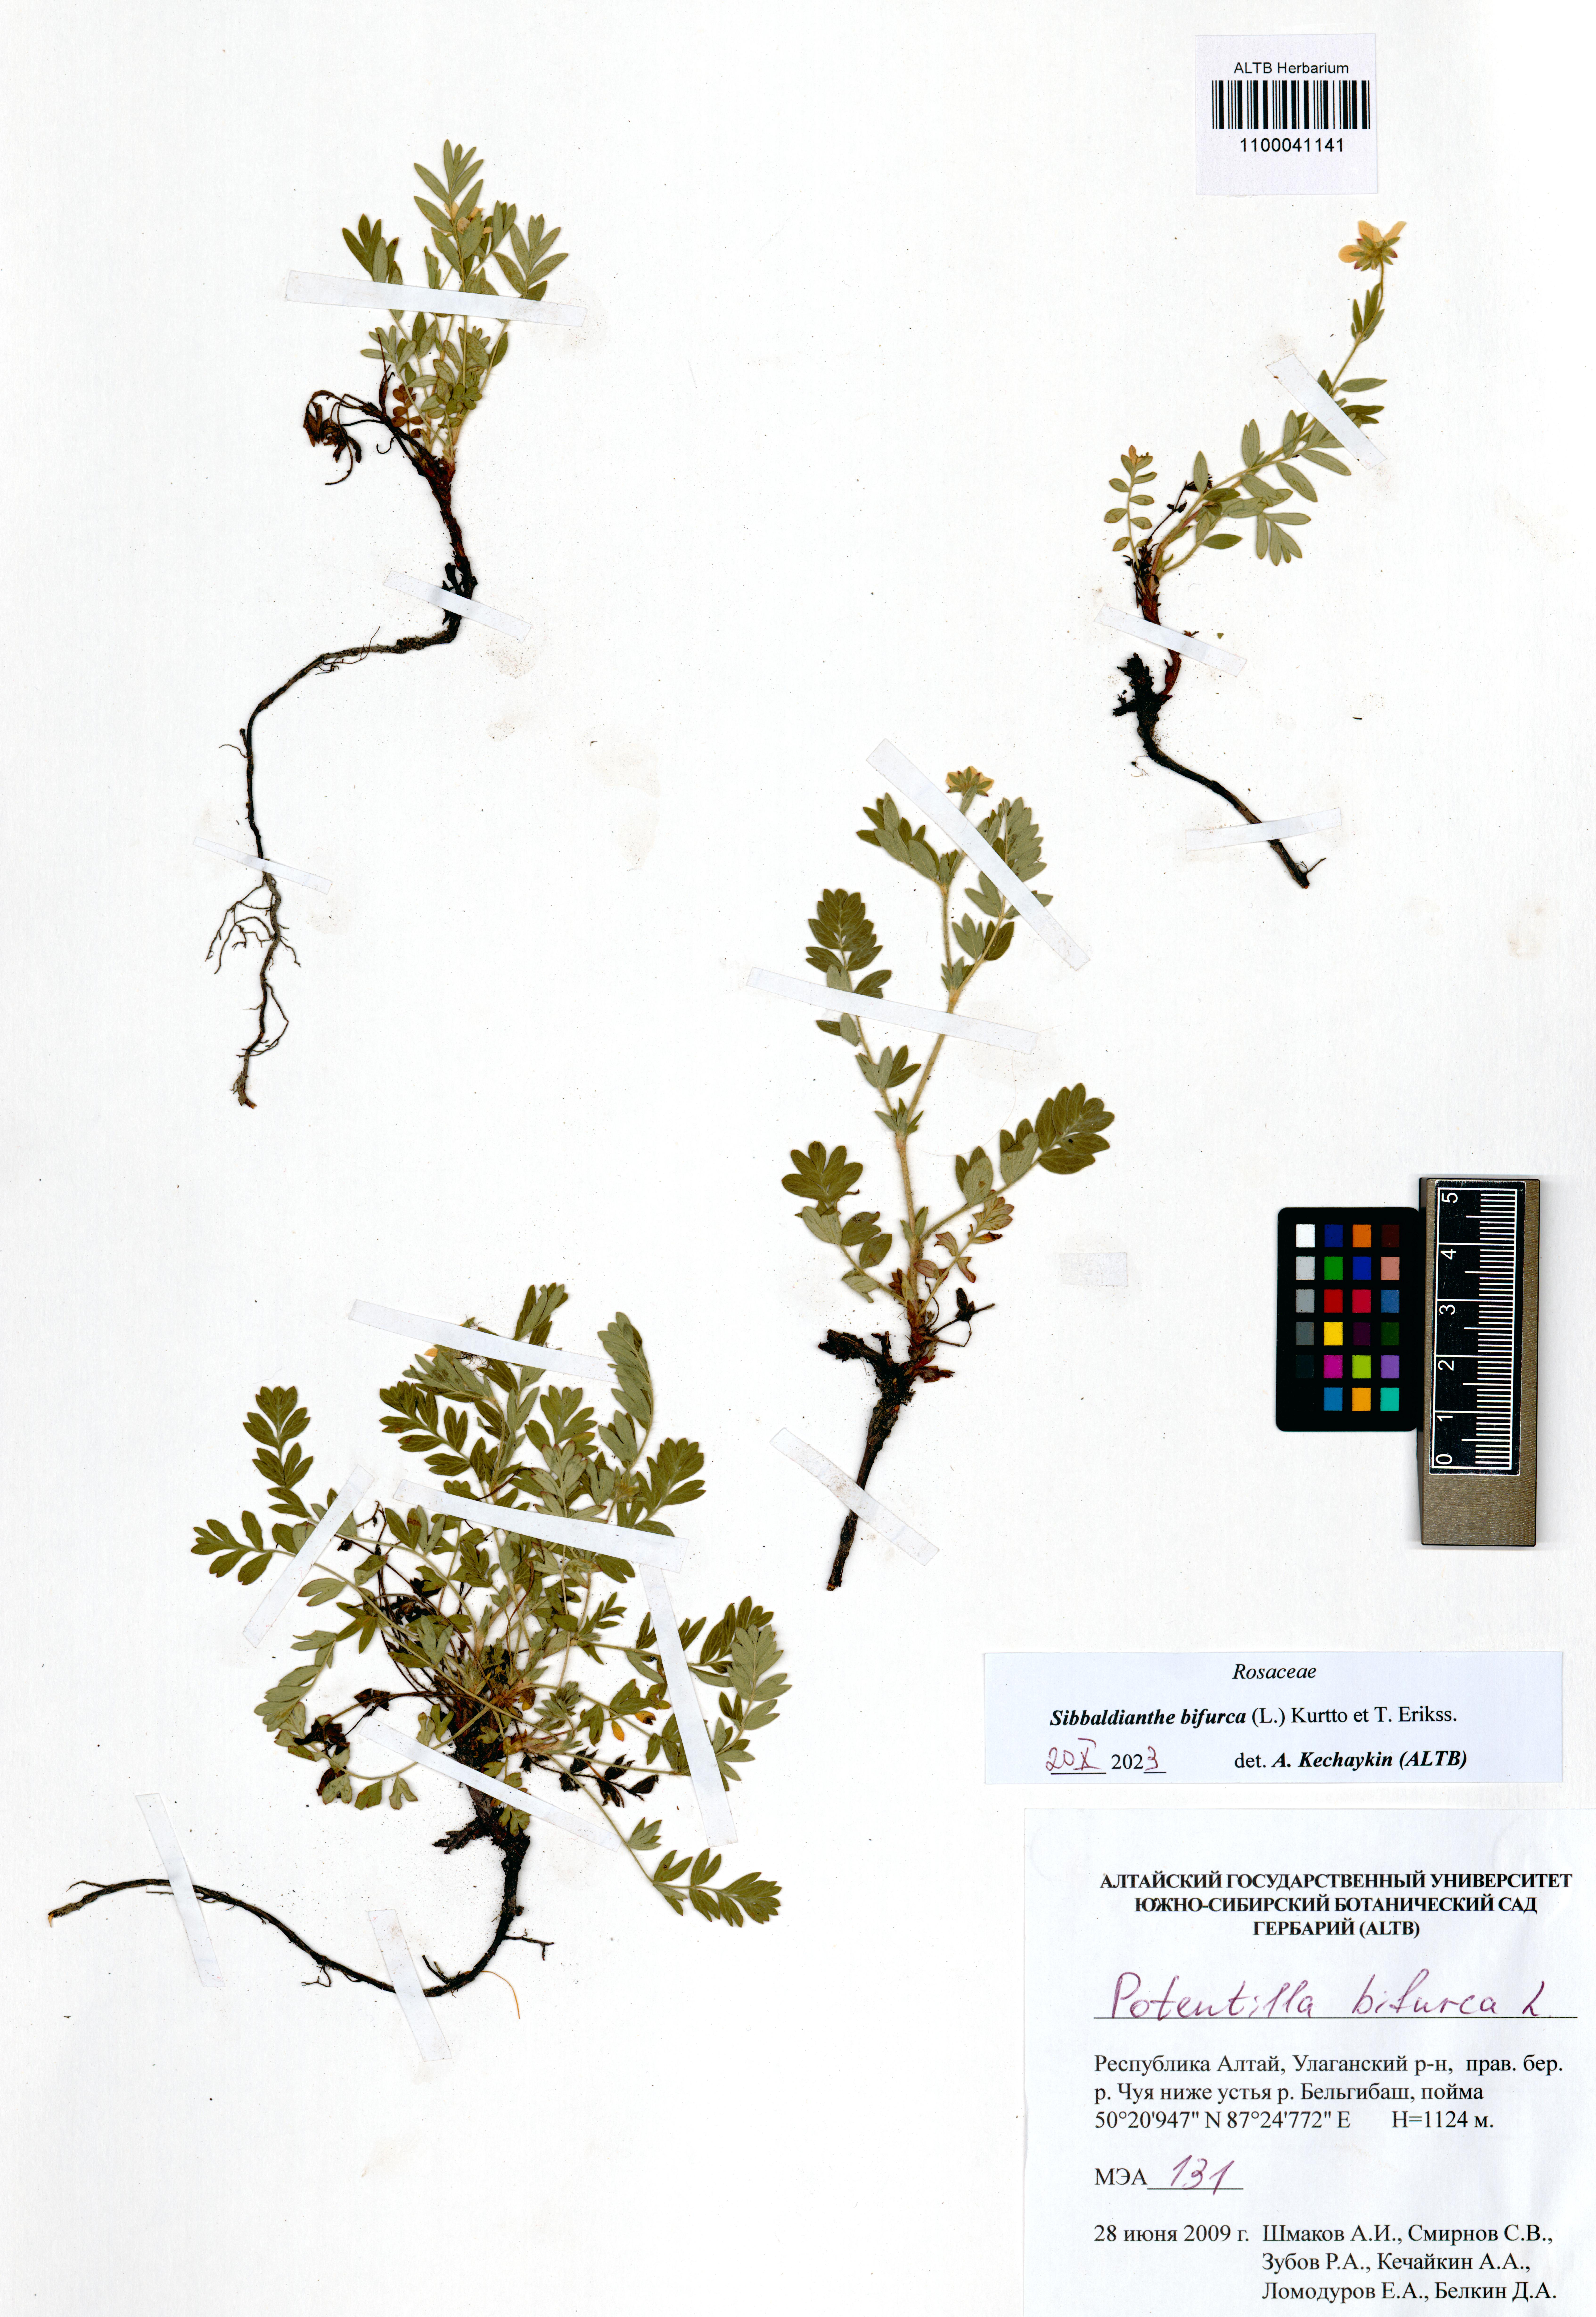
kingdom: Plantae
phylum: Tracheophyta
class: Magnoliopsida
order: Rosales
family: Rosaceae
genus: Sibbaldianthe
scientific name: Sibbaldianthe bifurca
